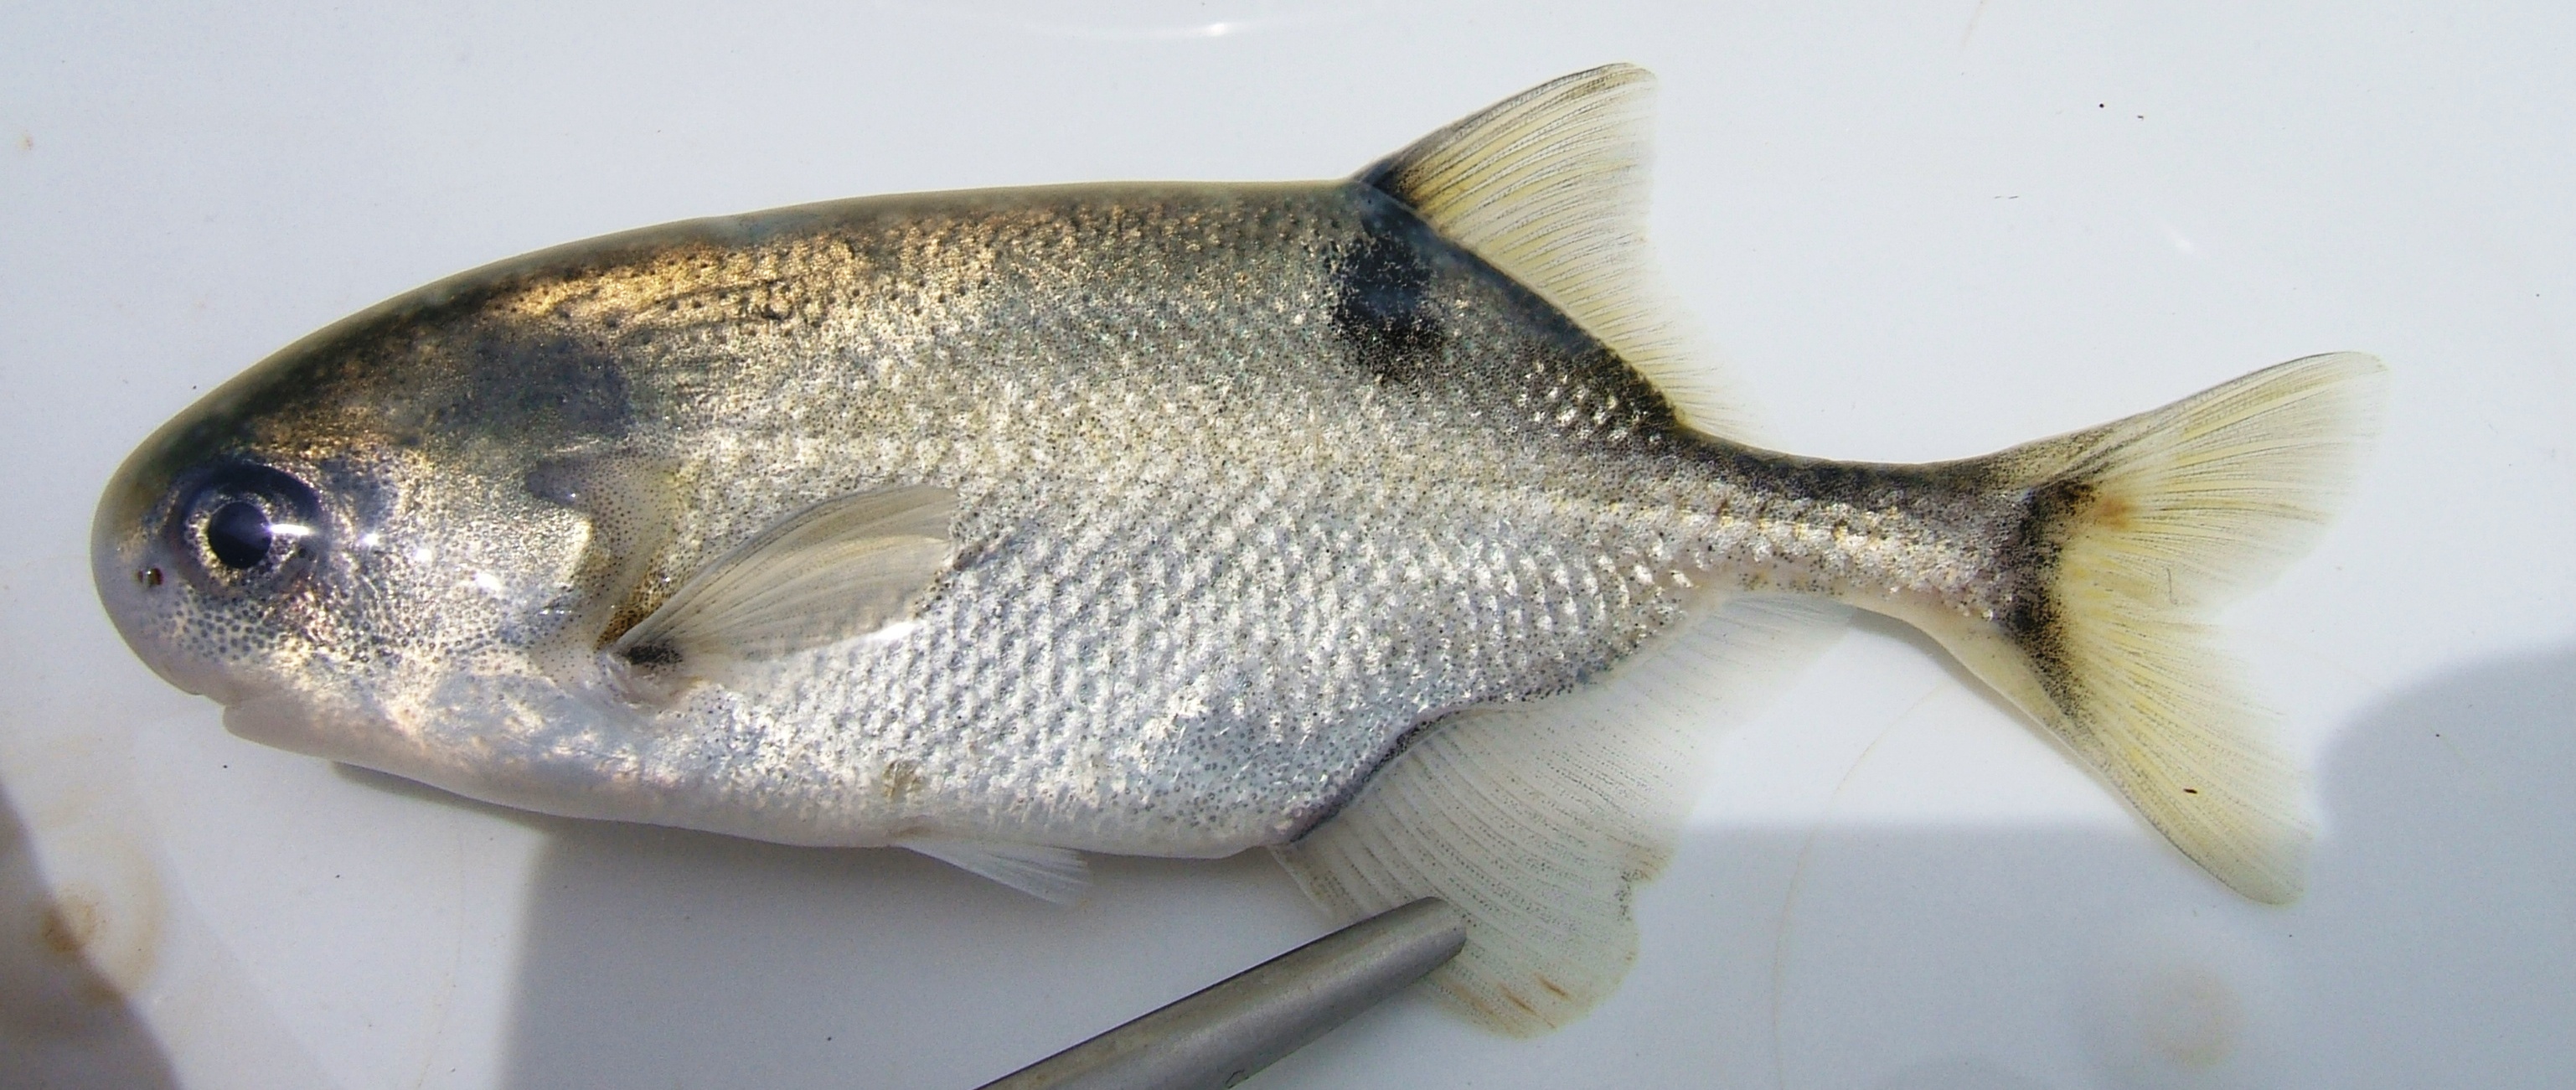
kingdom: Animalia
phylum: Chordata
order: Osteoglossiformes
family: Mormyridae
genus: Petrocephalus
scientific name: Petrocephalus
